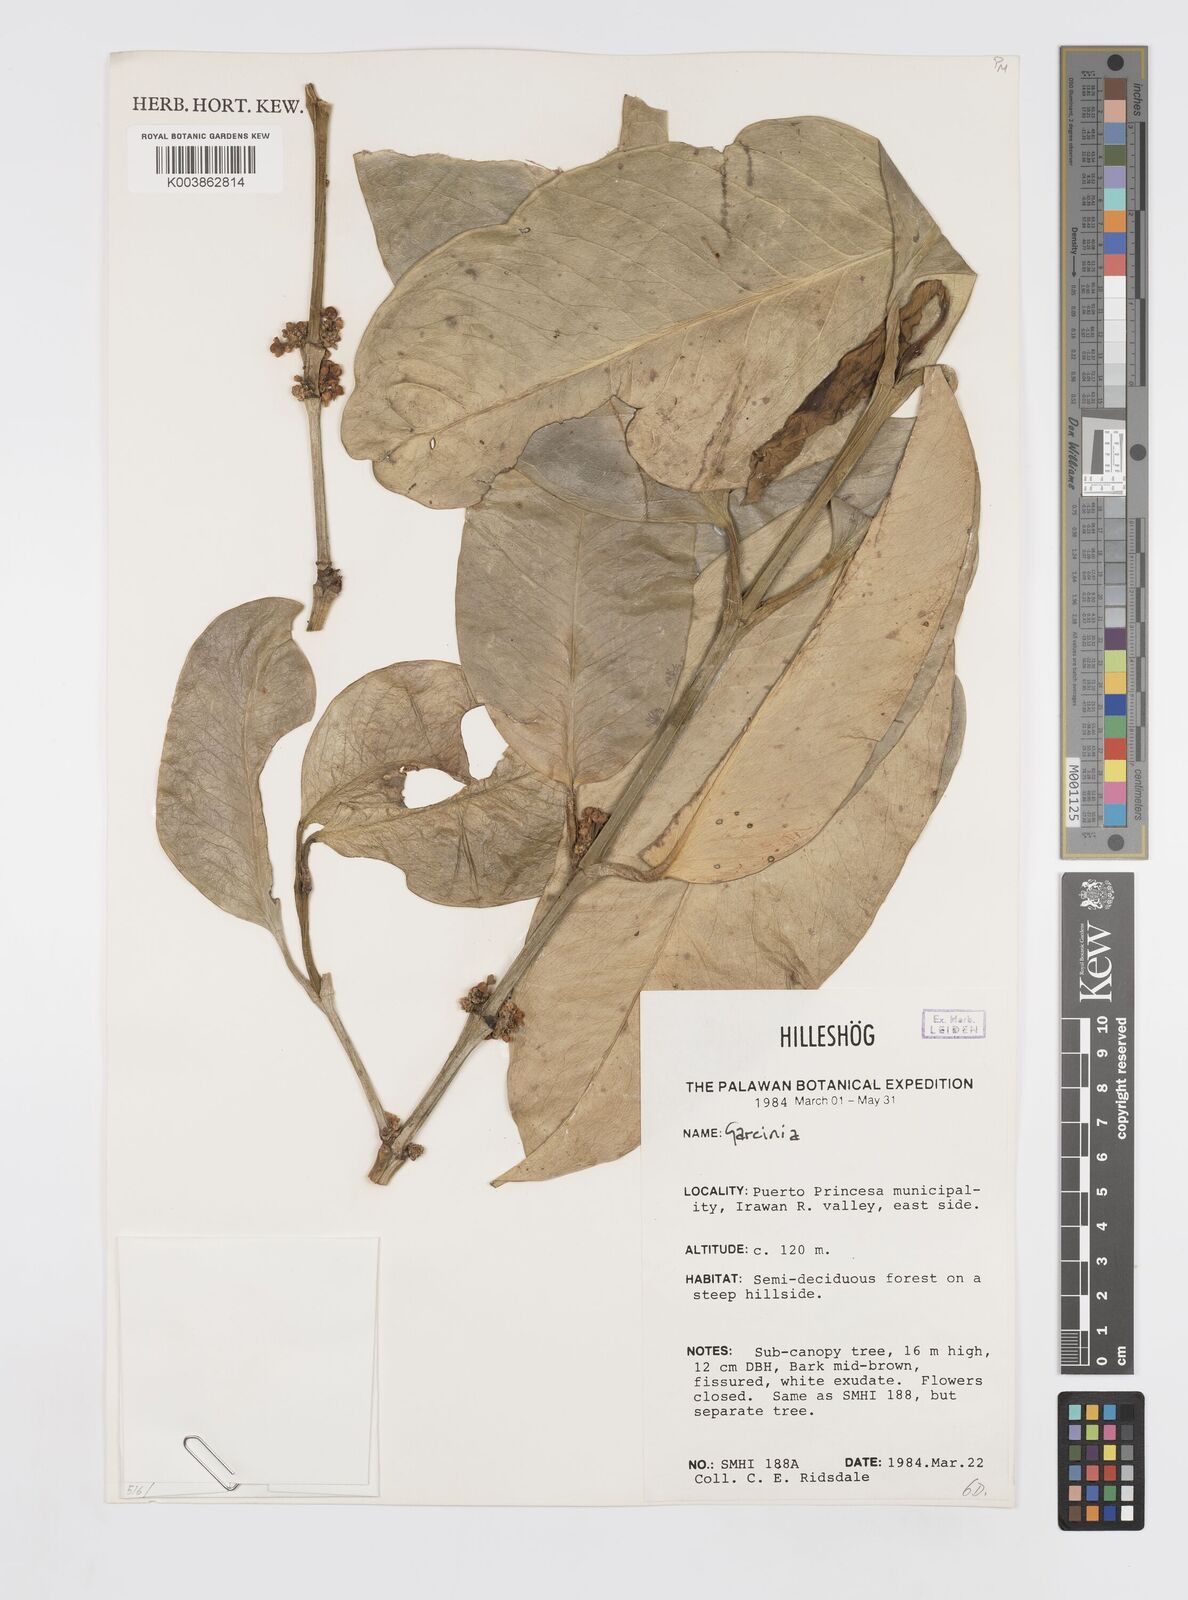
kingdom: Plantae
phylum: Tracheophyta
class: Magnoliopsida
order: Malpighiales
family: Clusiaceae
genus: Garcinia
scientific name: Garcinia
